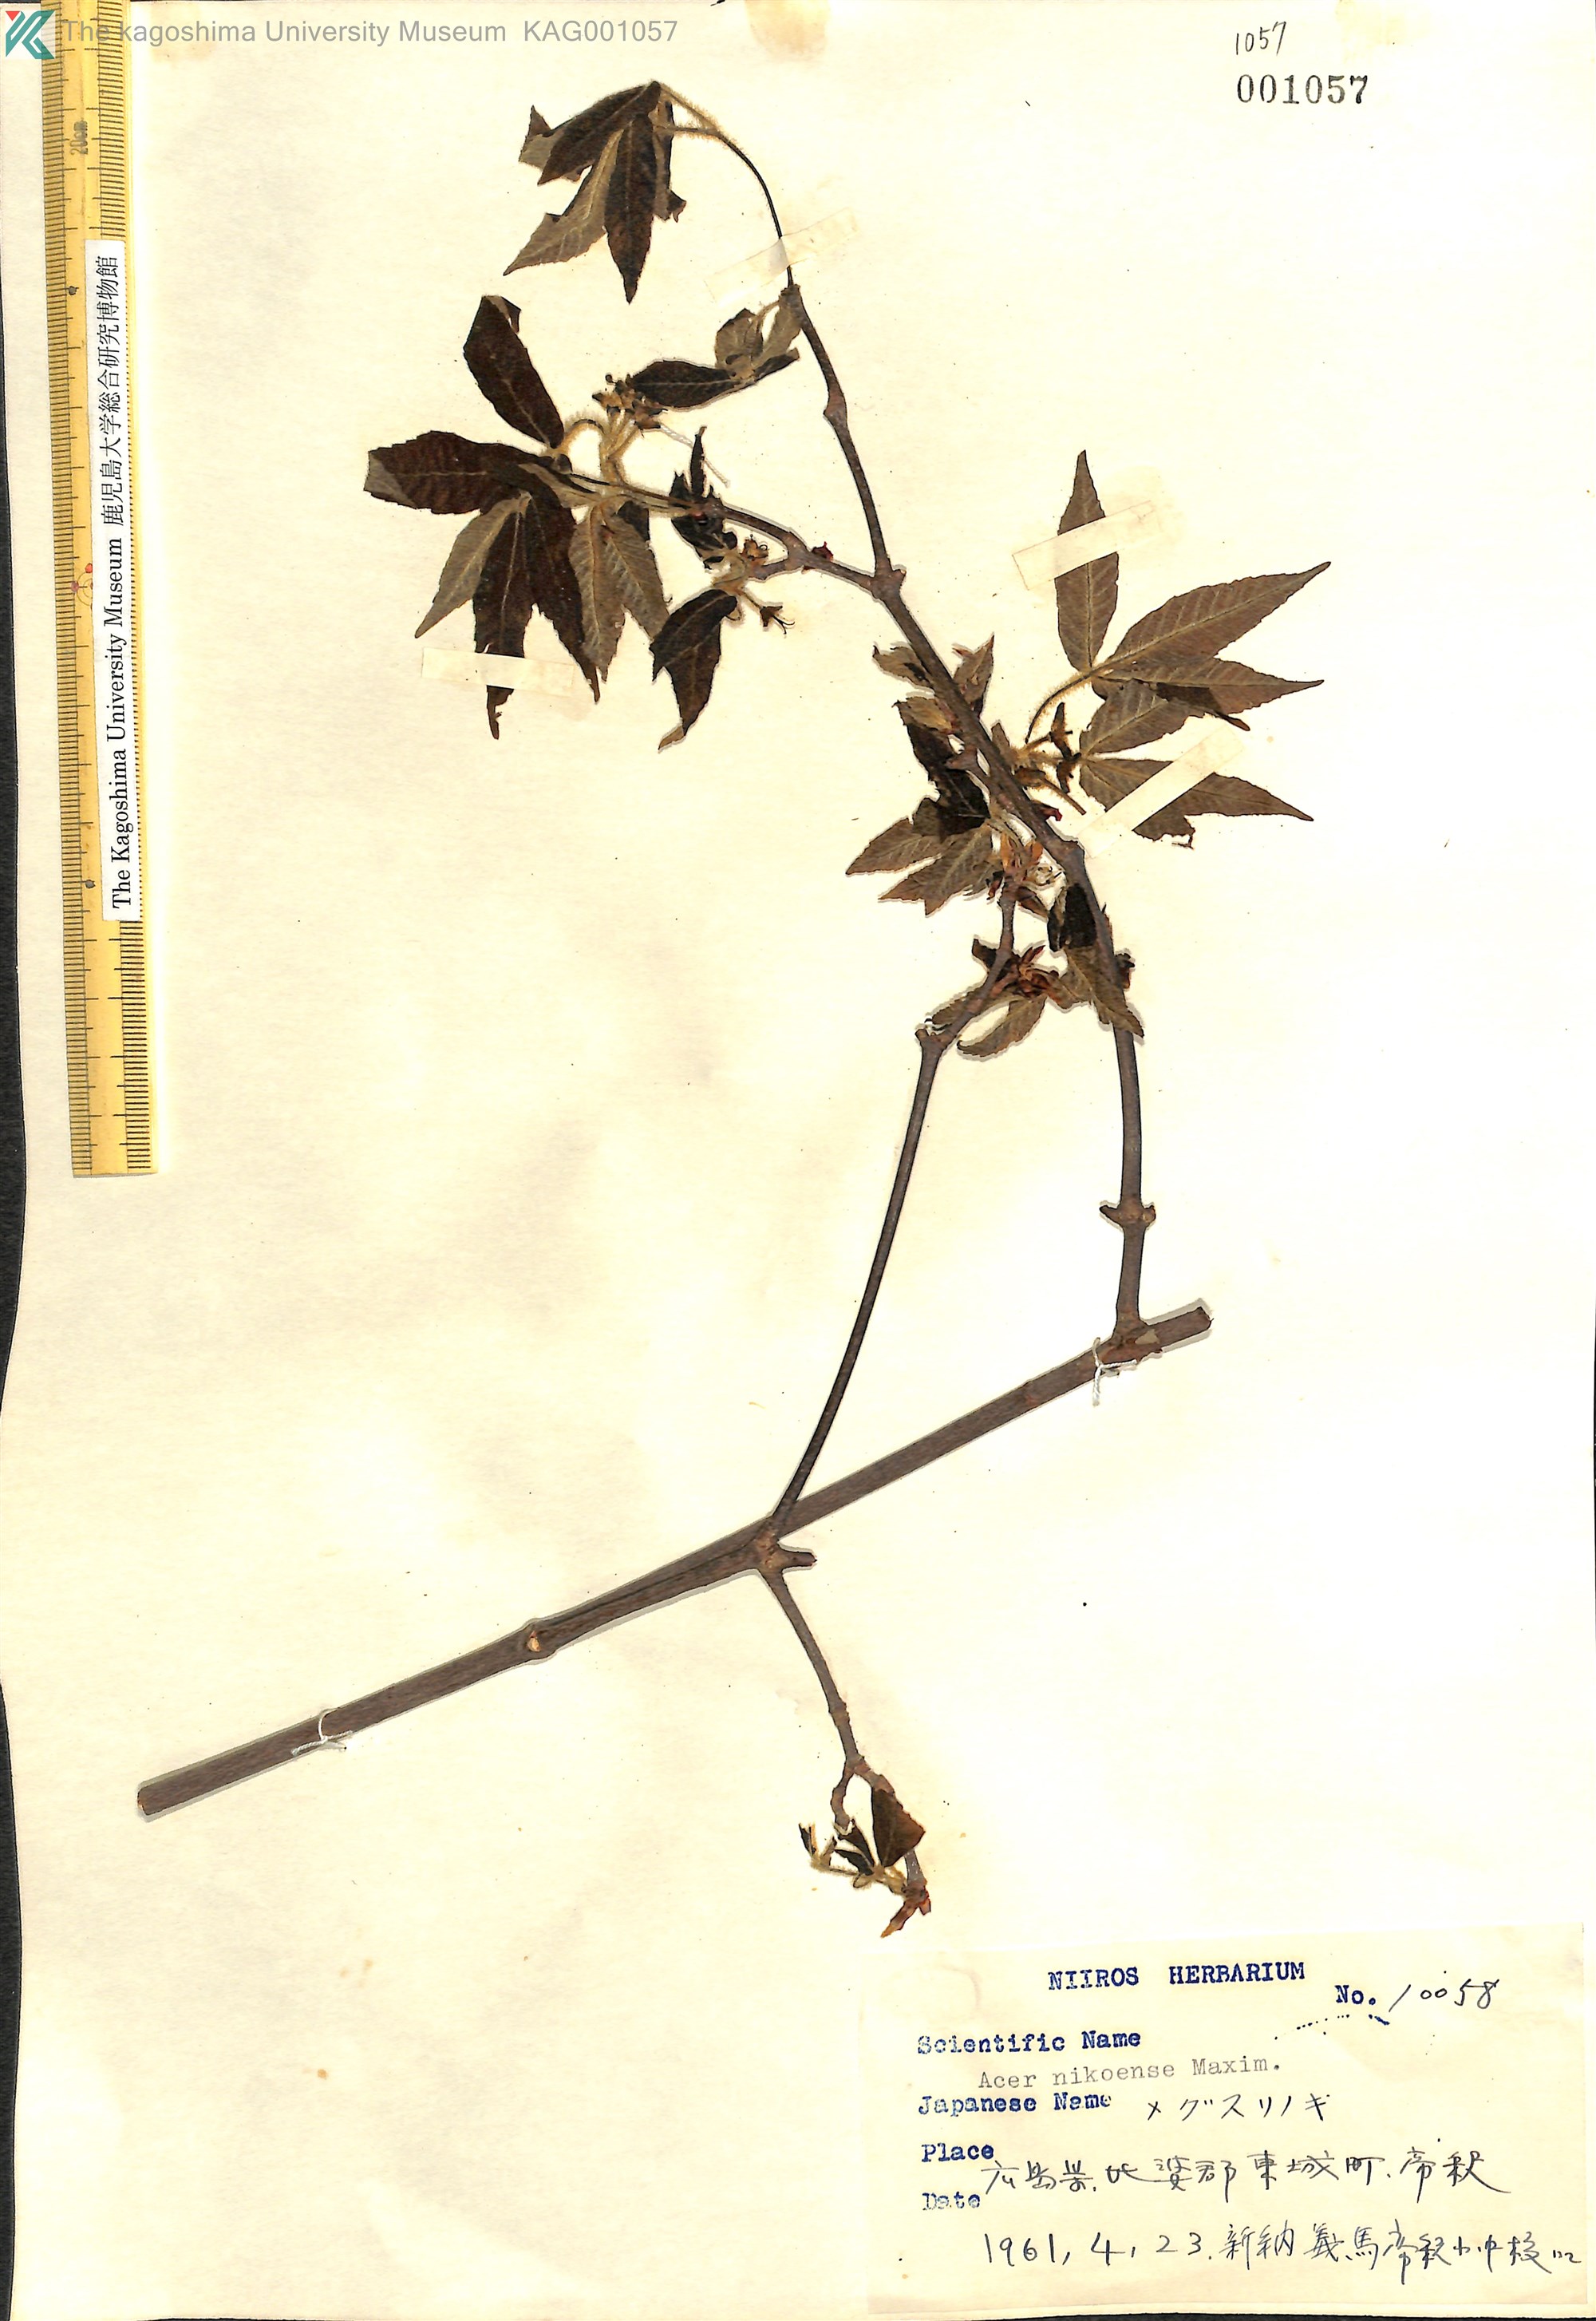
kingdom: Plantae
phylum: Tracheophyta
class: Magnoliopsida
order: Sapindales
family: Sapindaceae
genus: Acer
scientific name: Acer maximowiczianum
